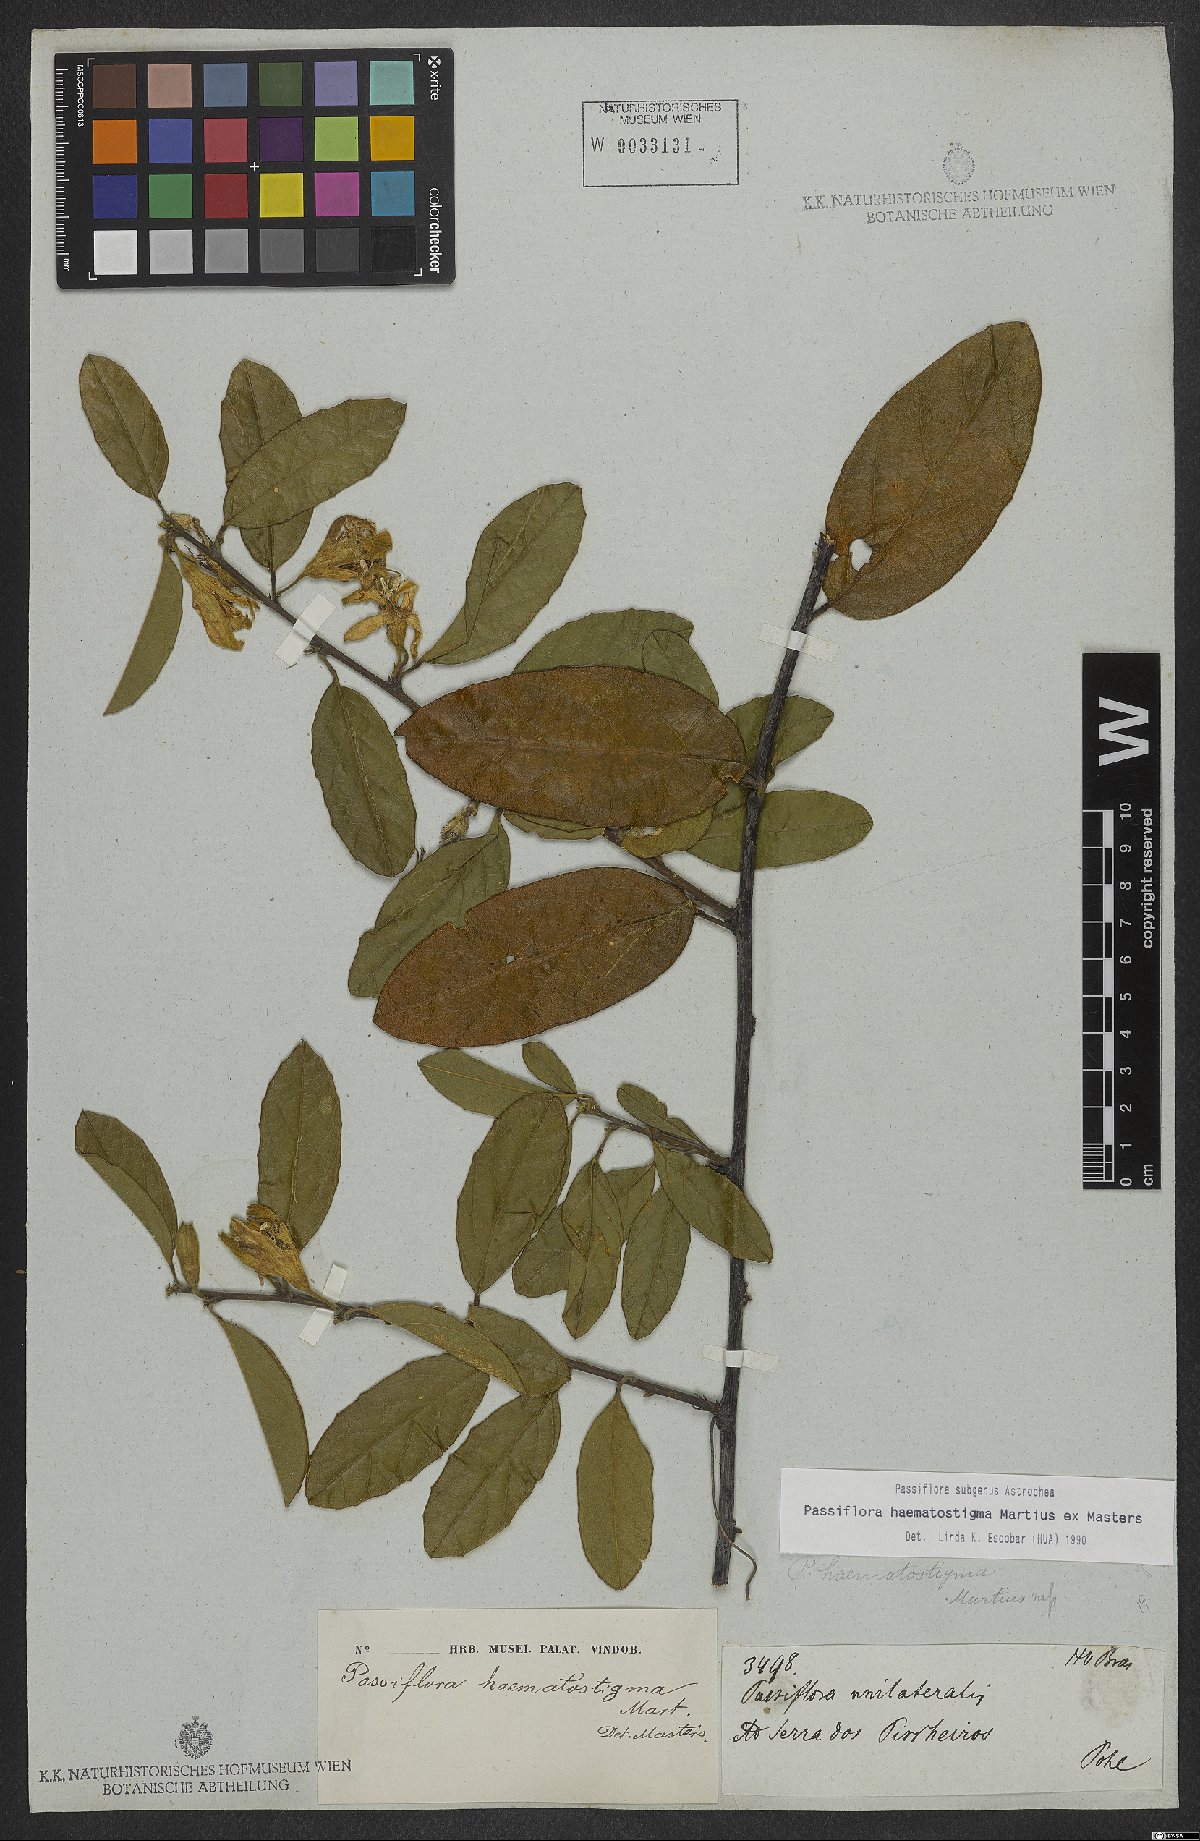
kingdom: Plantae
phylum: Tracheophyta
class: Magnoliopsida
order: Malpighiales
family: Passifloraceae
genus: Passiflora
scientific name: Passiflora haematostigma
